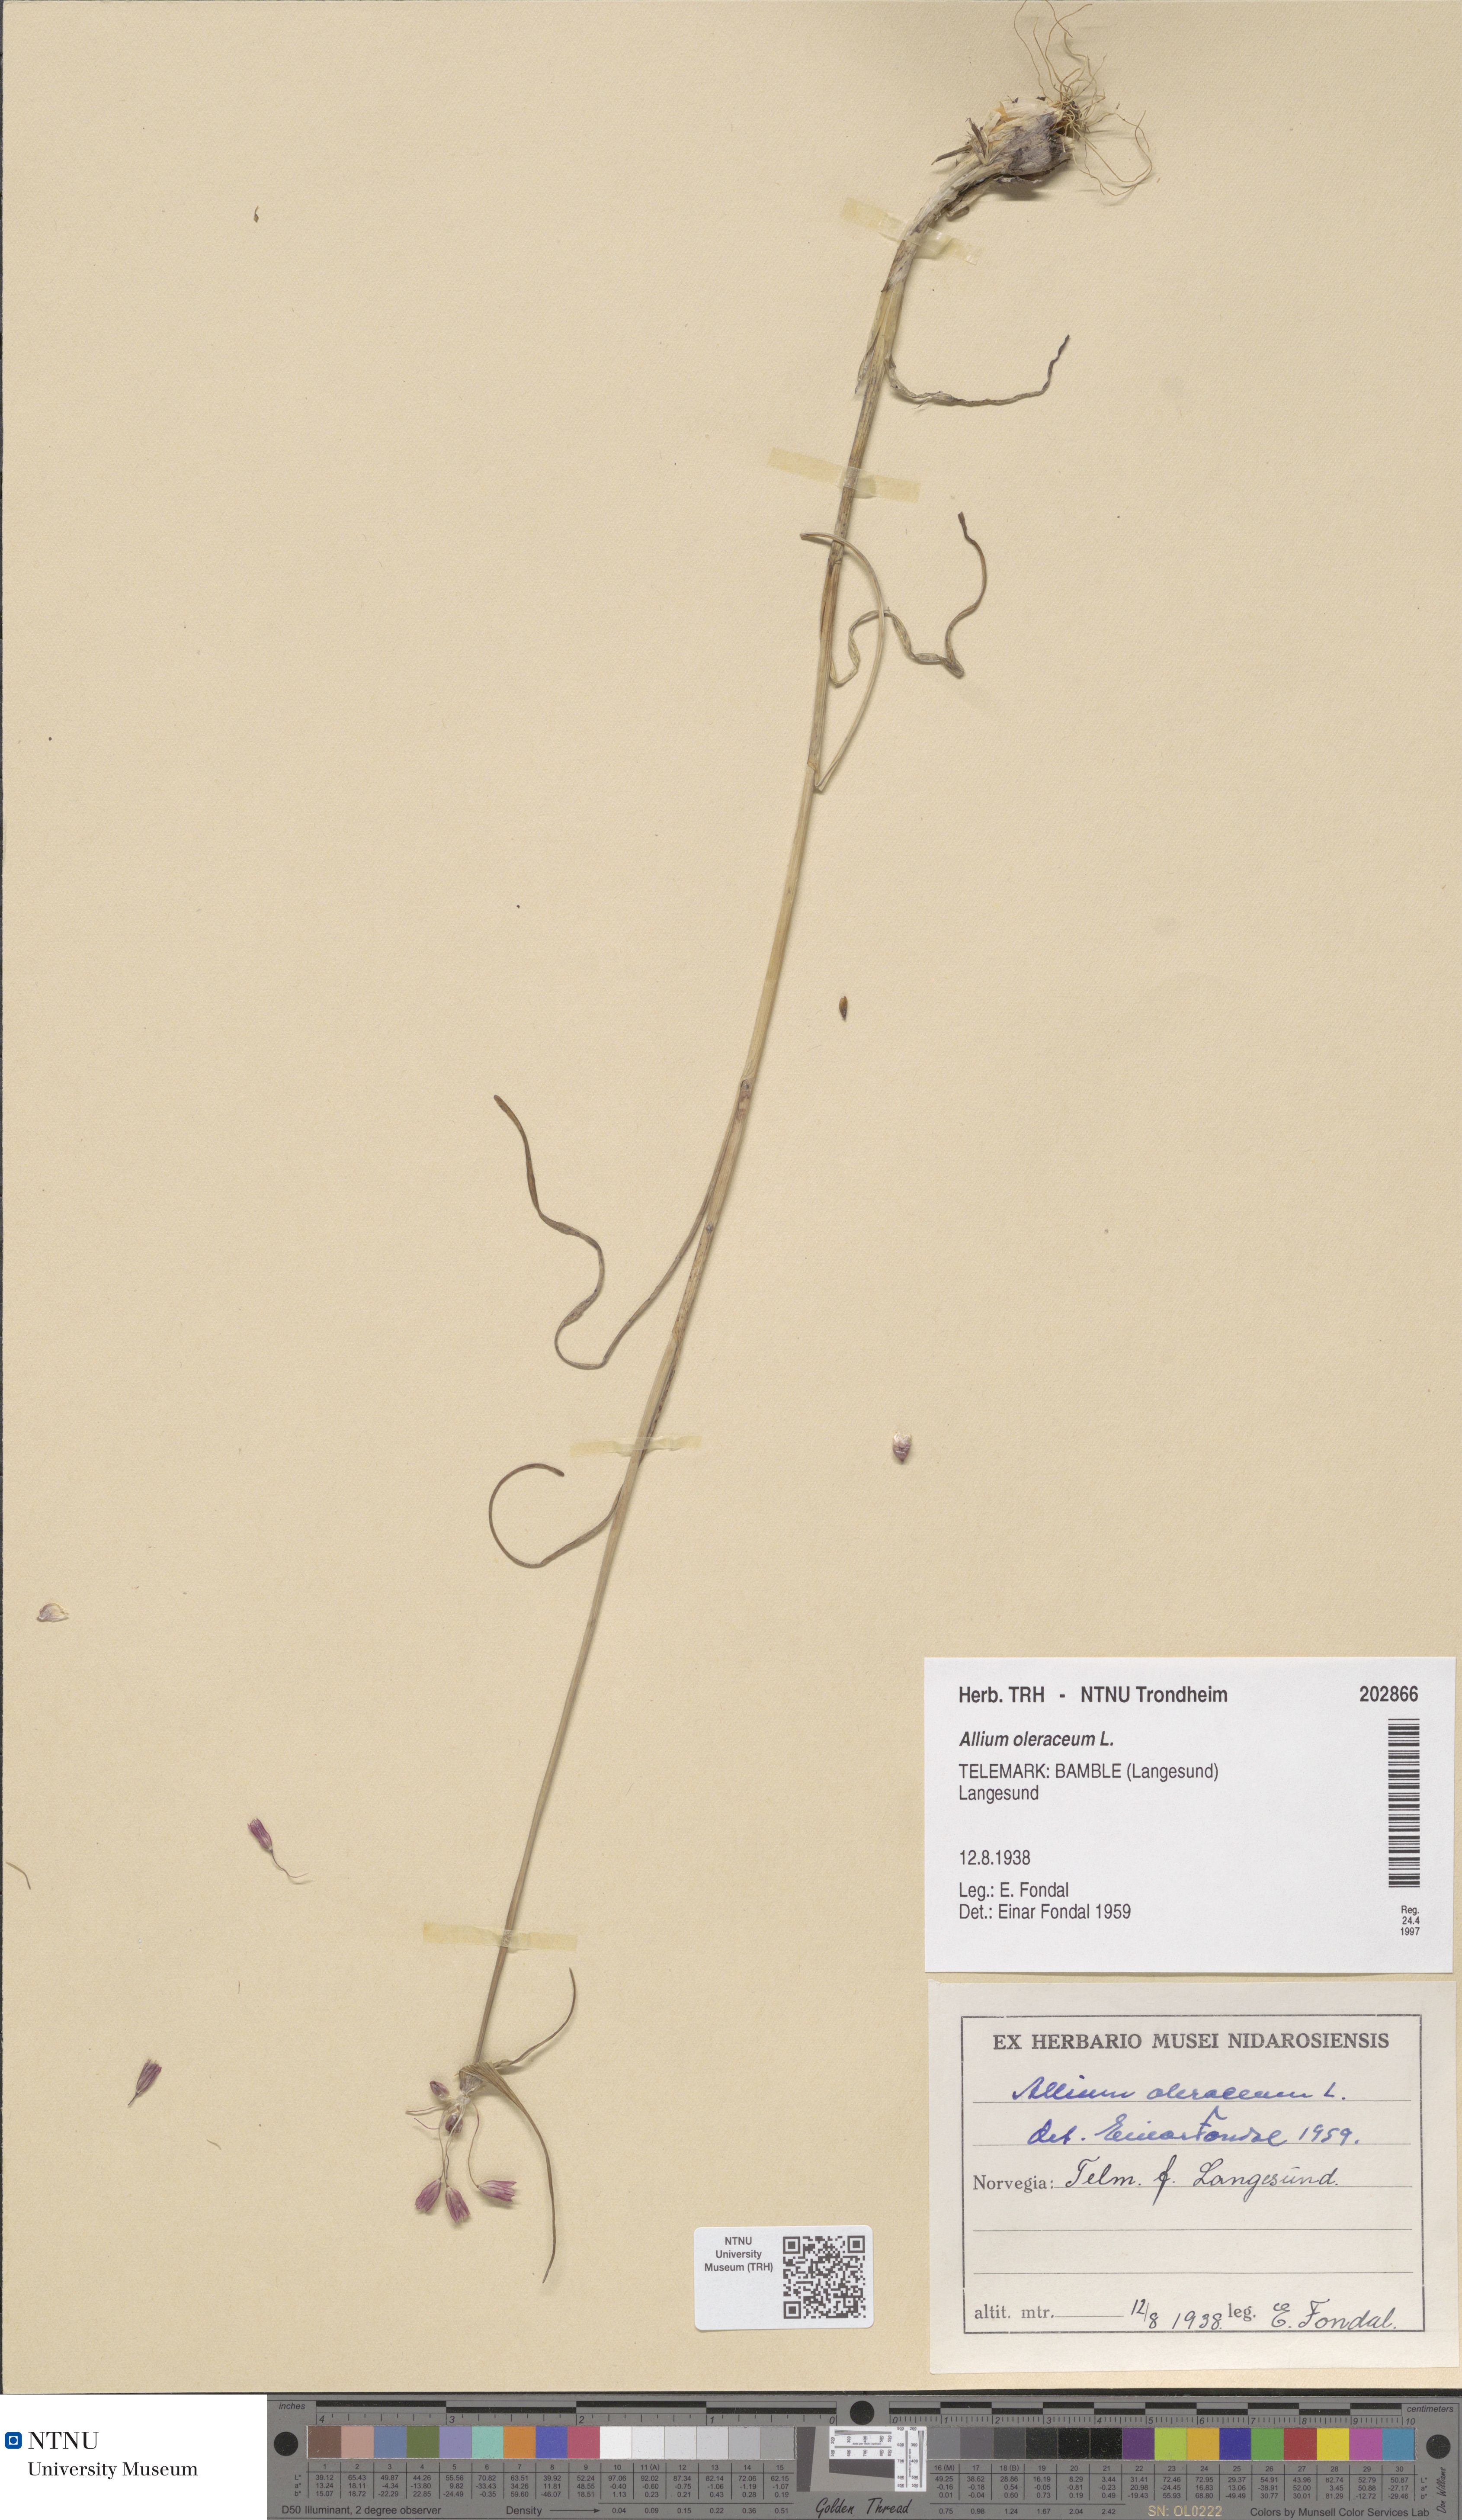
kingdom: Plantae
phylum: Tracheophyta
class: Liliopsida
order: Asparagales
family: Amaryllidaceae
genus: Allium
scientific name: Allium oleraceum
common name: Field garlic
